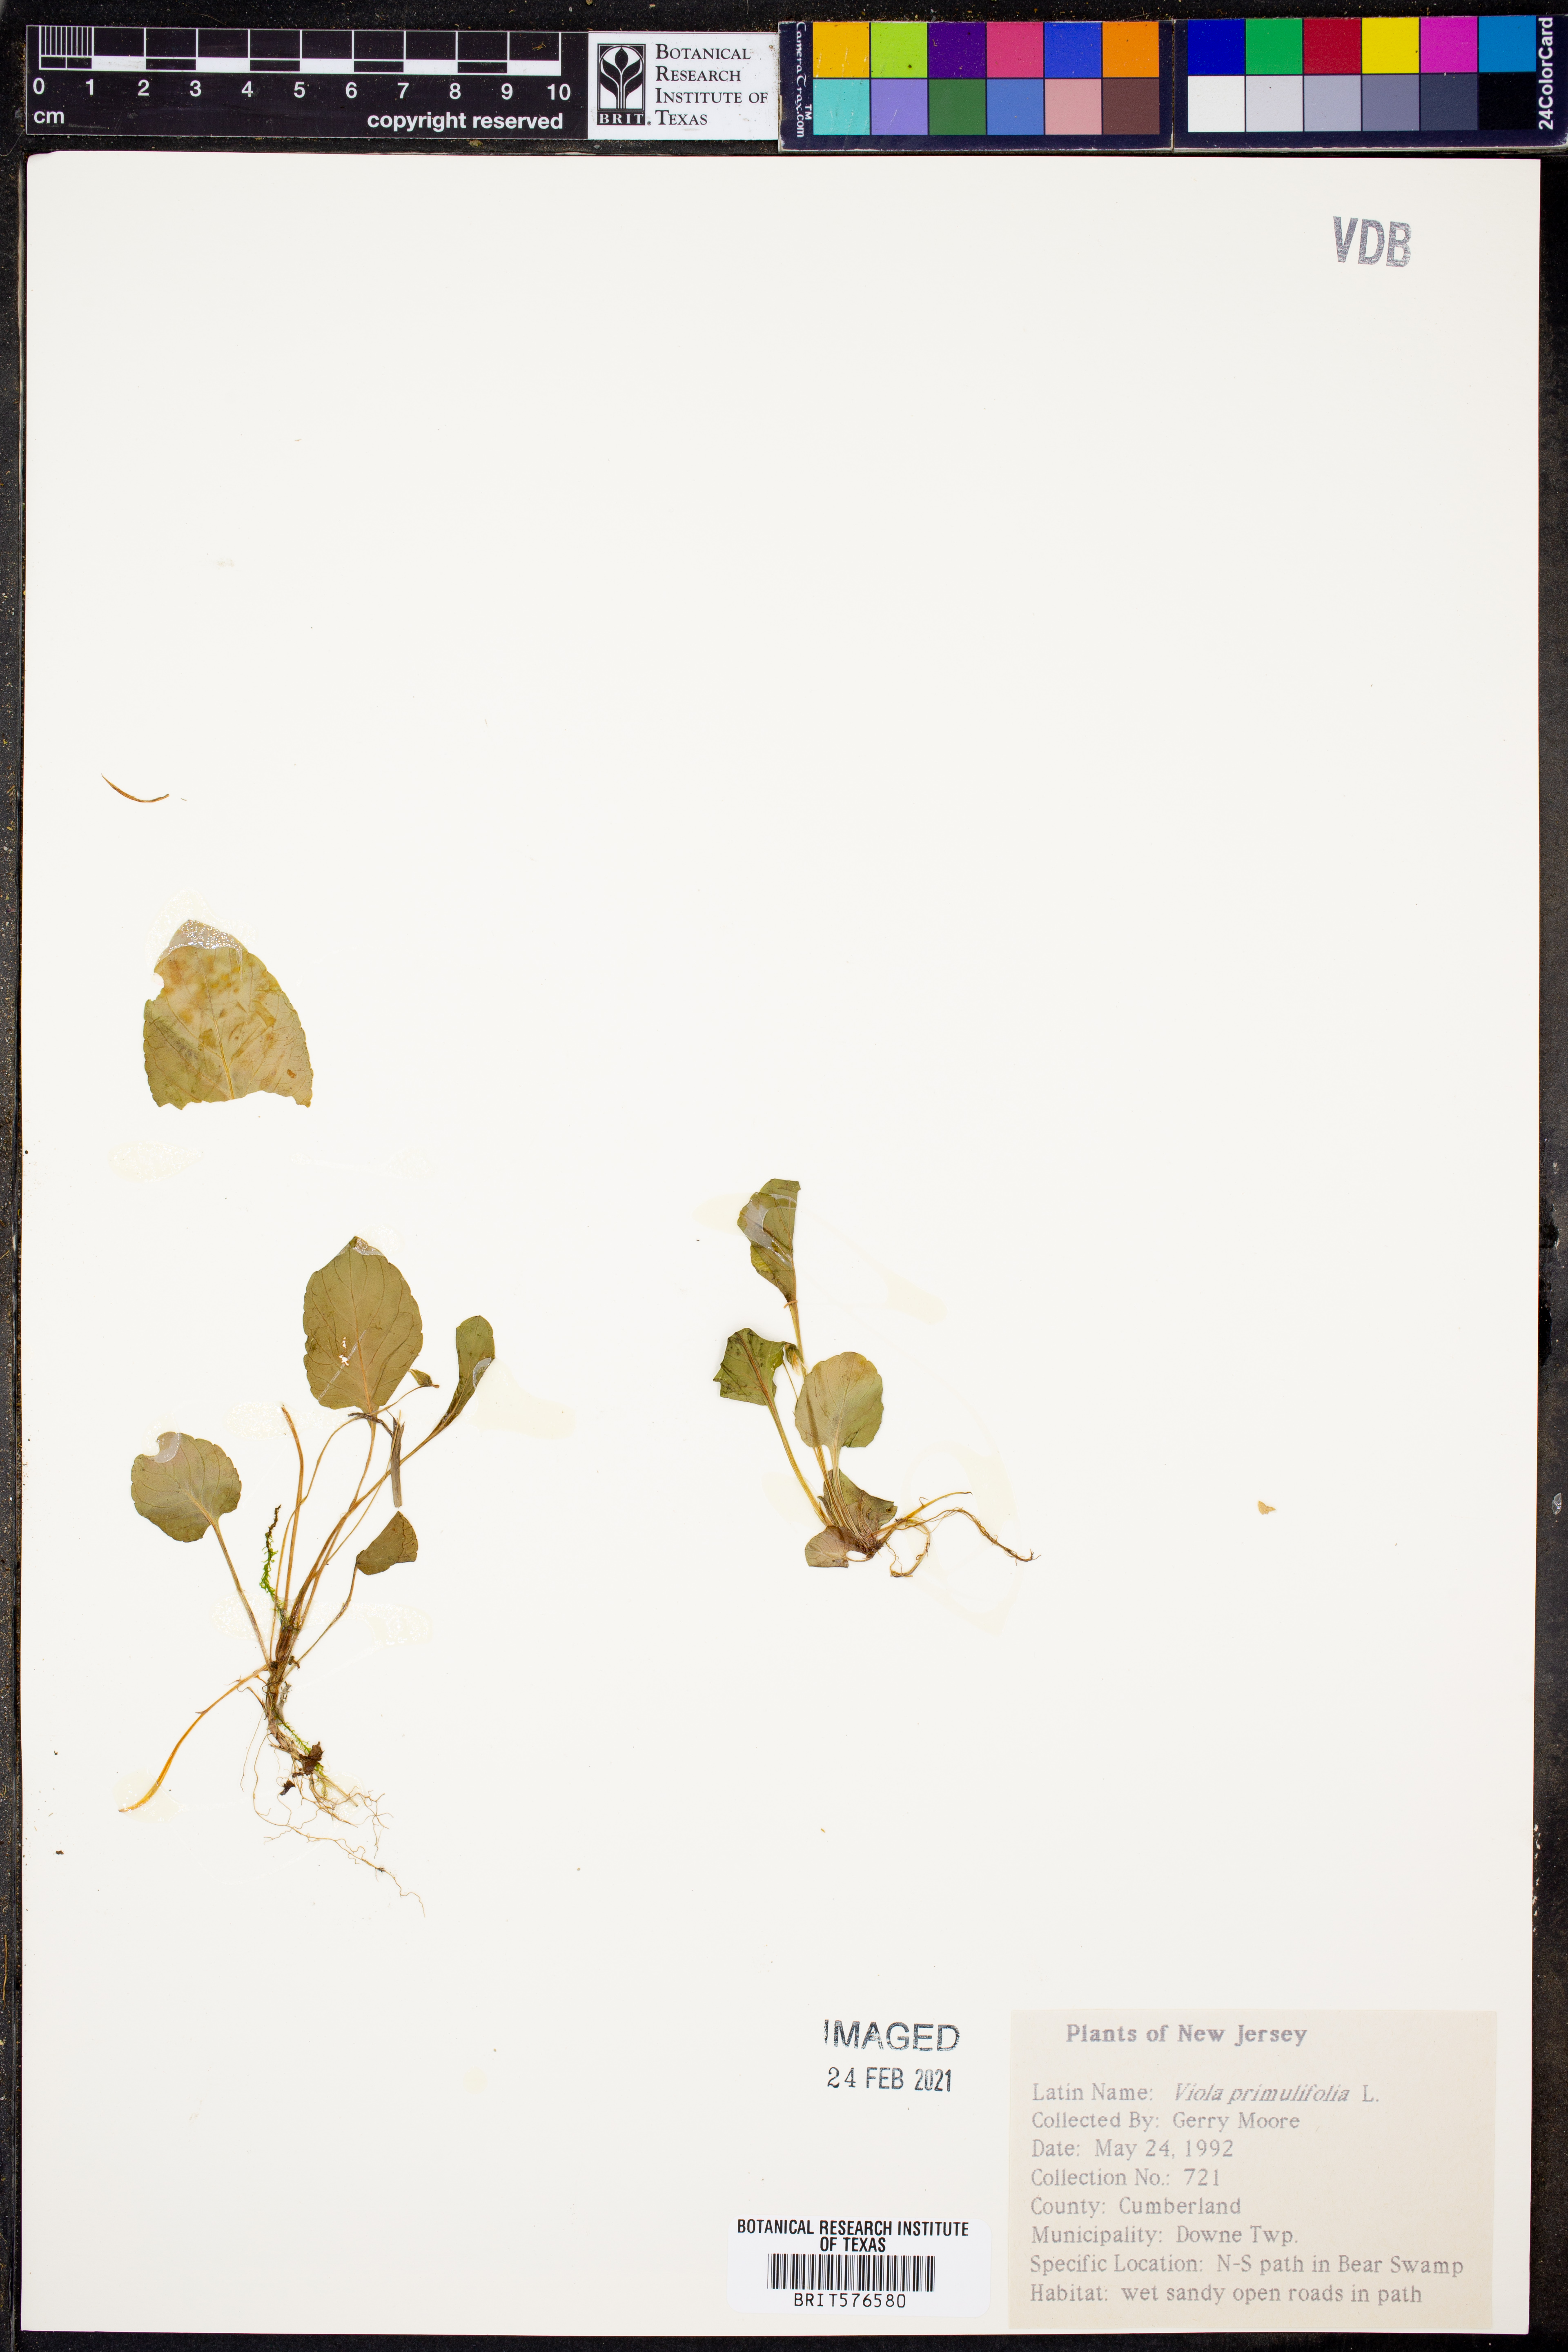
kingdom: Plantae
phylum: Tracheophyta
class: Magnoliopsida
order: Malpighiales
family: Violaceae
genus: Viola
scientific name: Viola primulifolia
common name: Primrose-leaf violet
